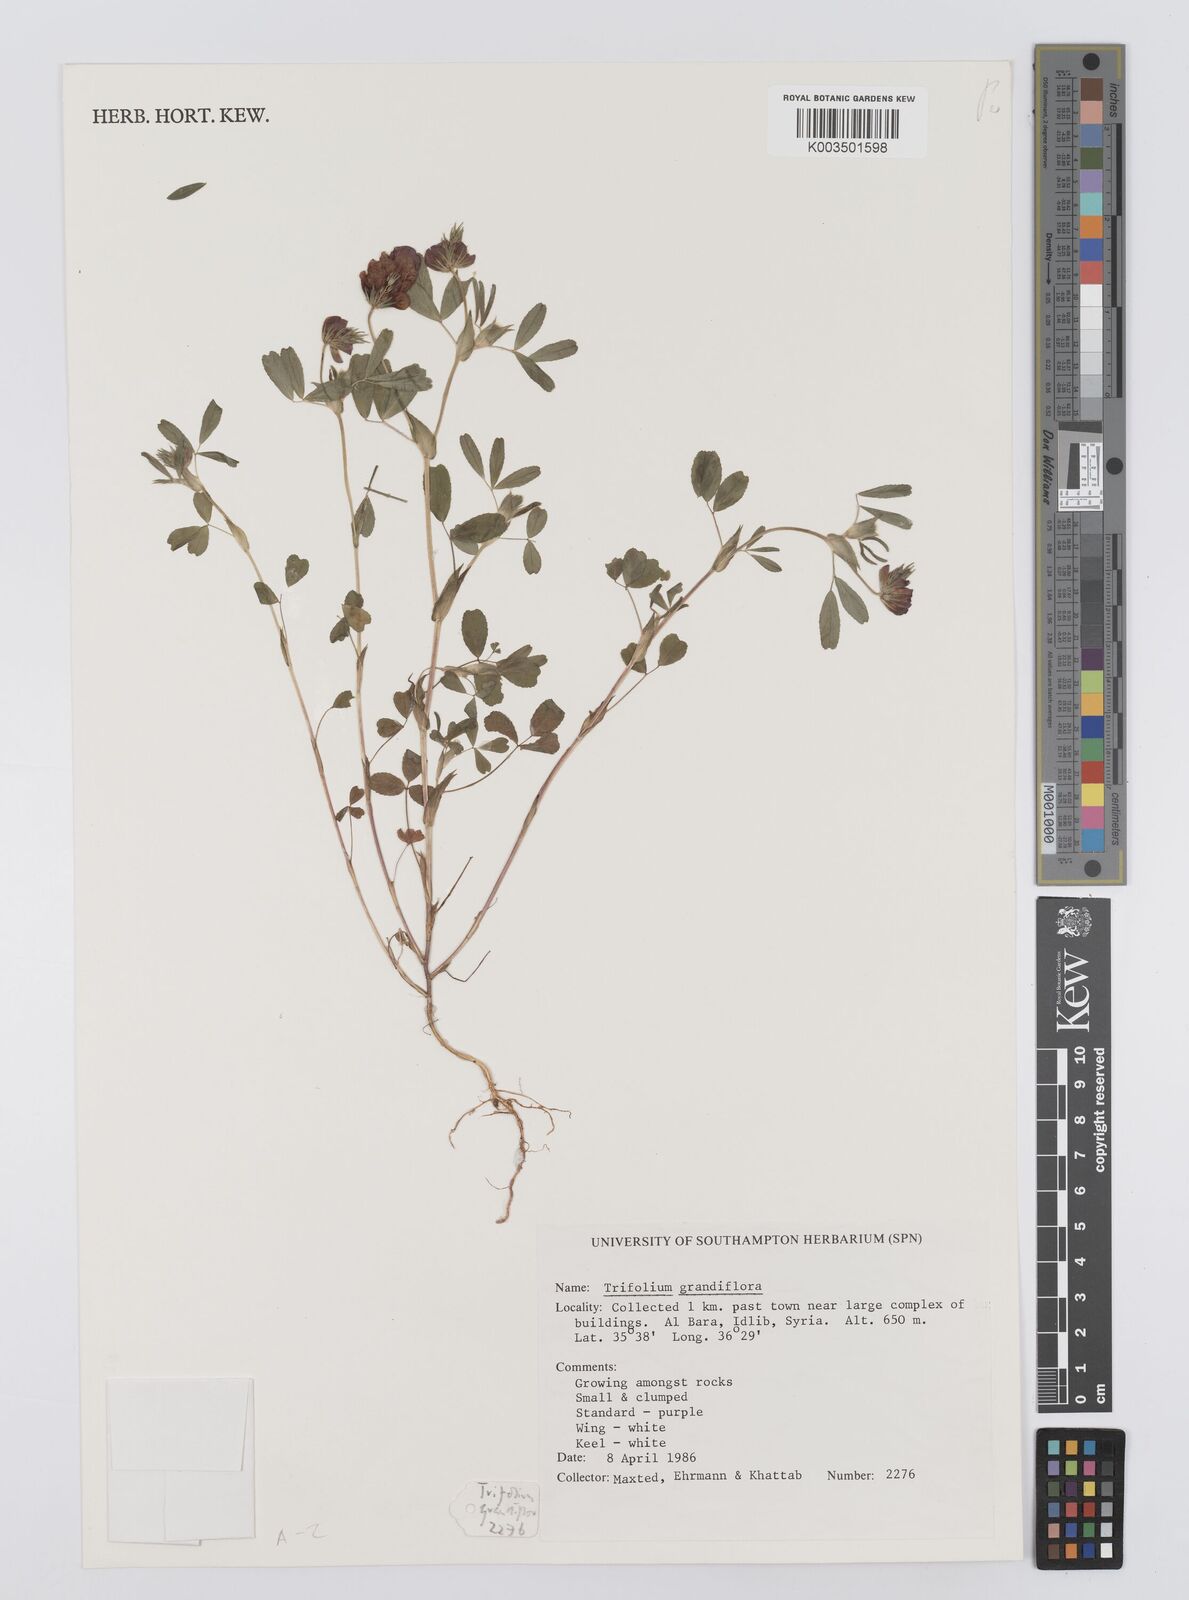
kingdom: Plantae
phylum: Tracheophyta
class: Magnoliopsida
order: Fabales
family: Fabaceae
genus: Trifolium
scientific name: Trifolium
